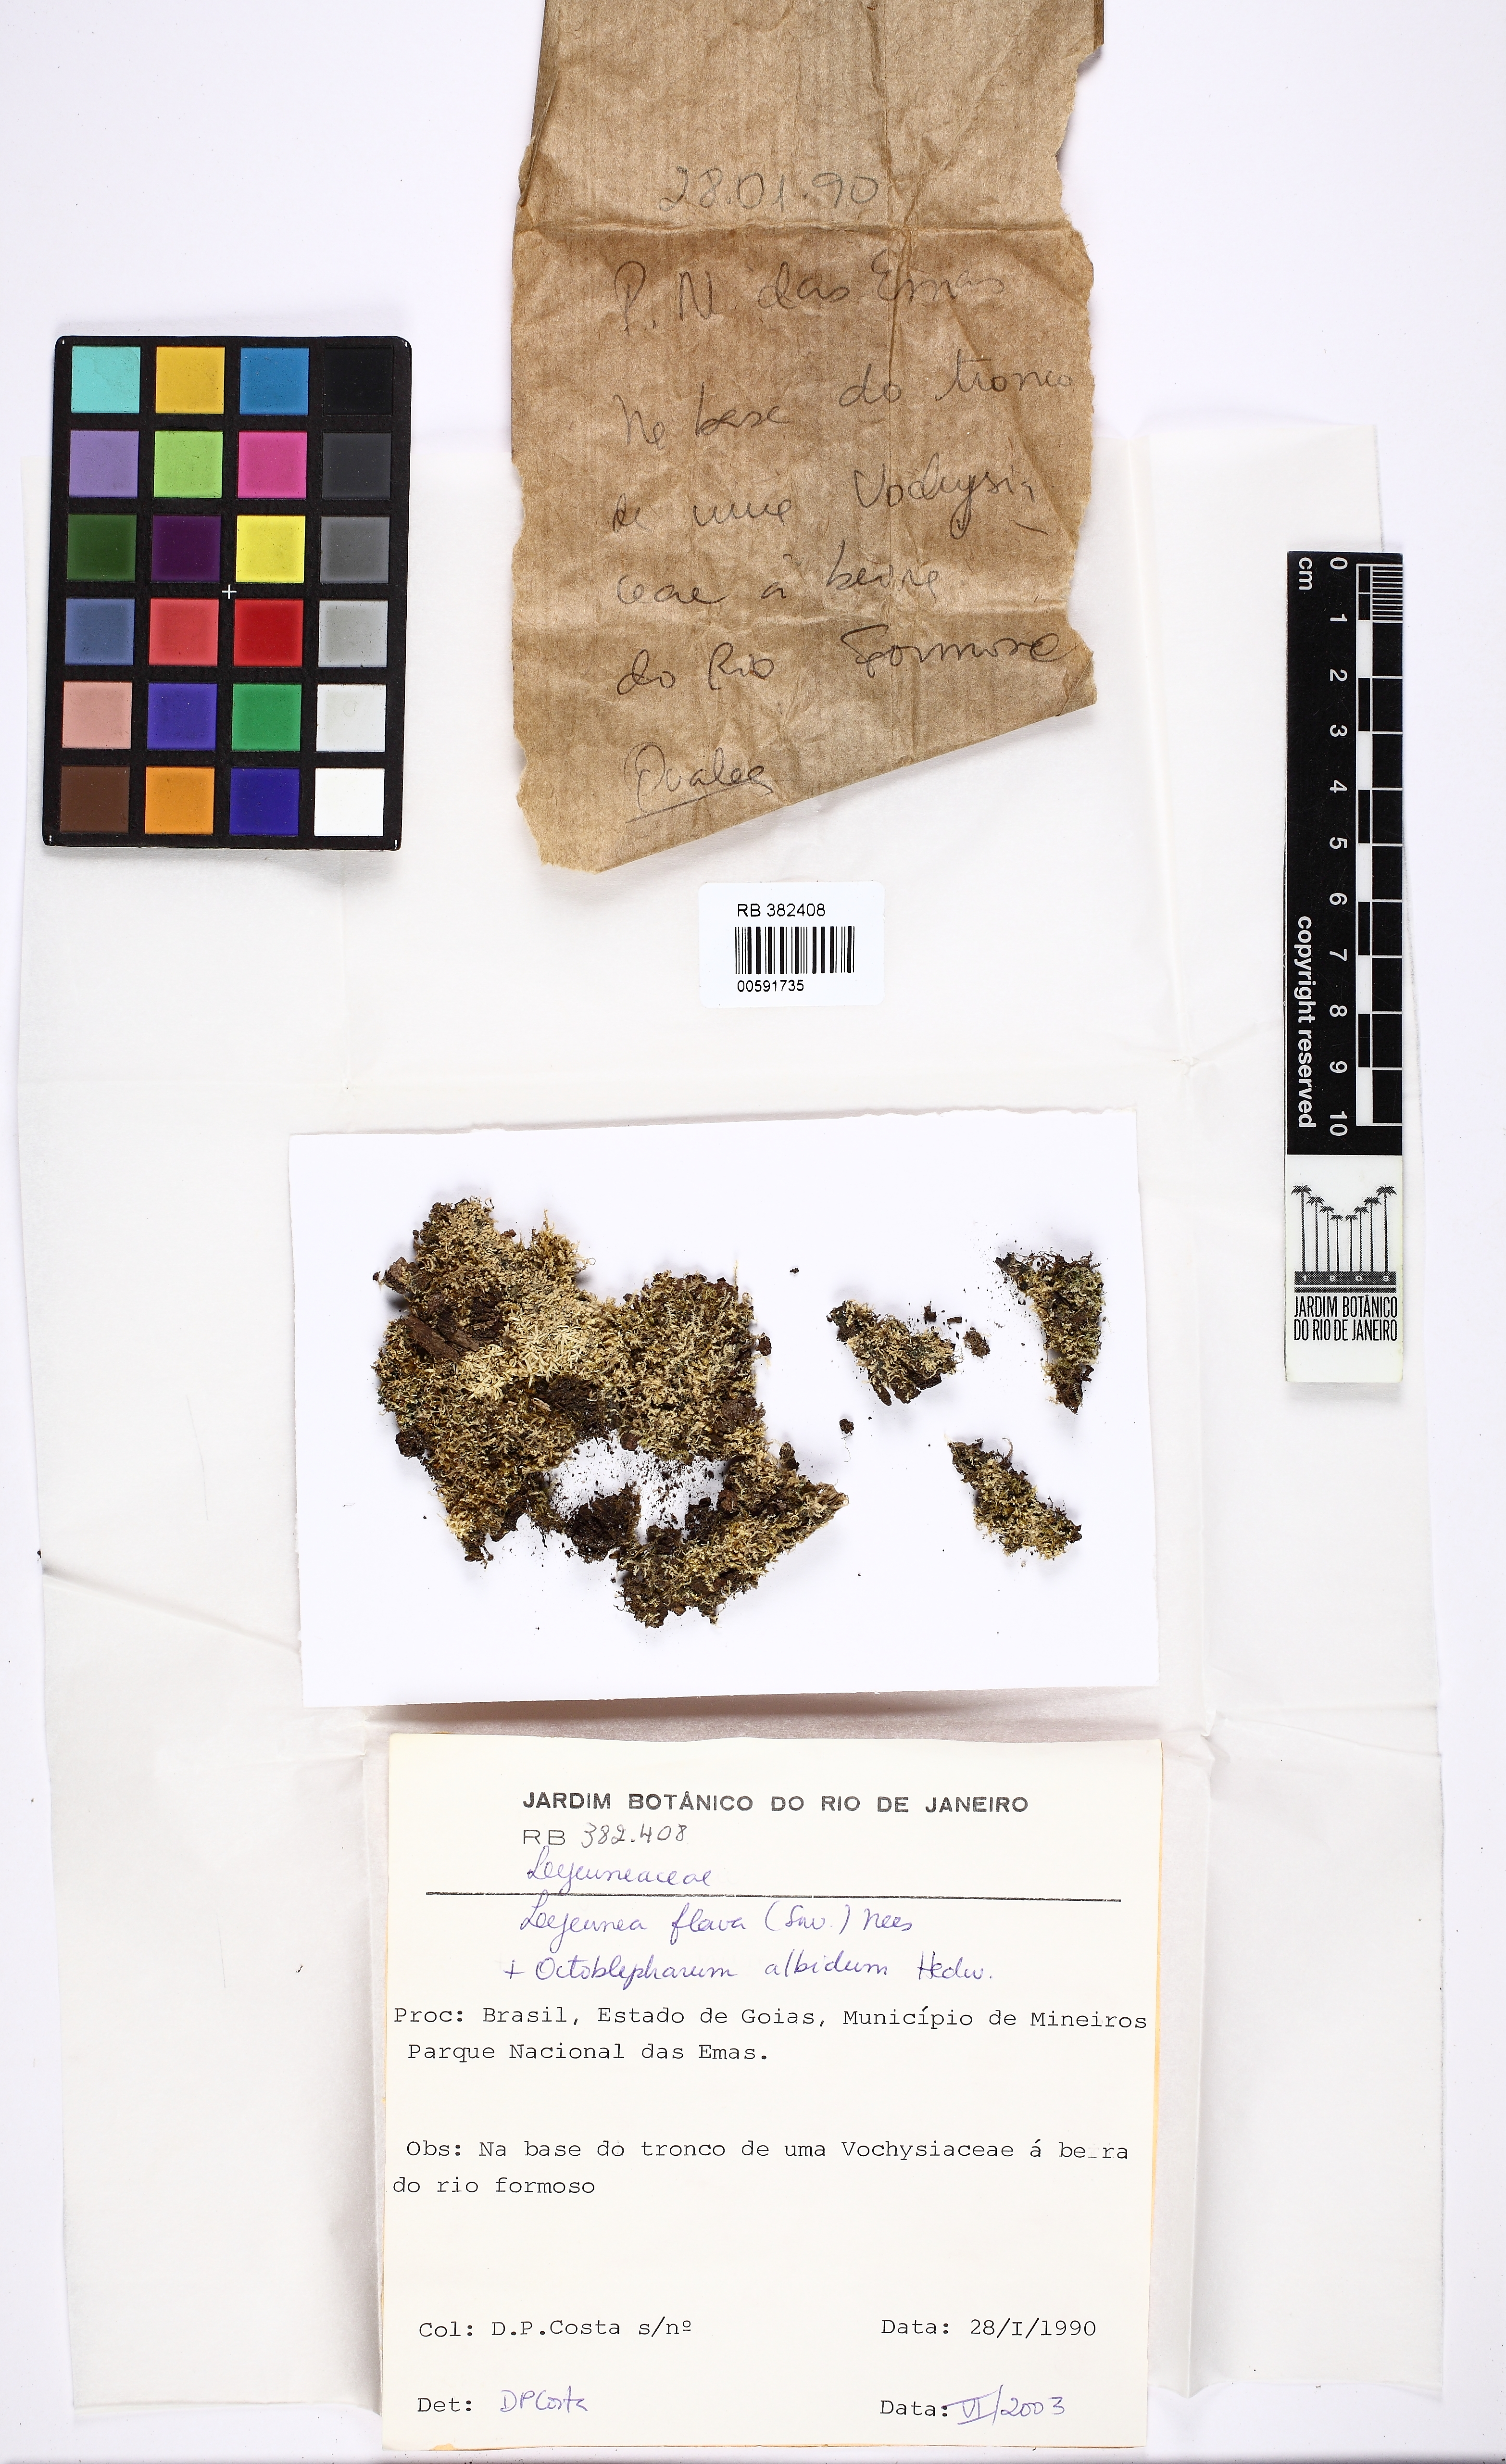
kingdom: Plantae
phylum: Marchantiophyta
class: Jungermanniopsida
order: Porellales
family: Lejeuneaceae
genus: Lejeunea
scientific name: Lejeunea flava
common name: Yellow pouncewort
